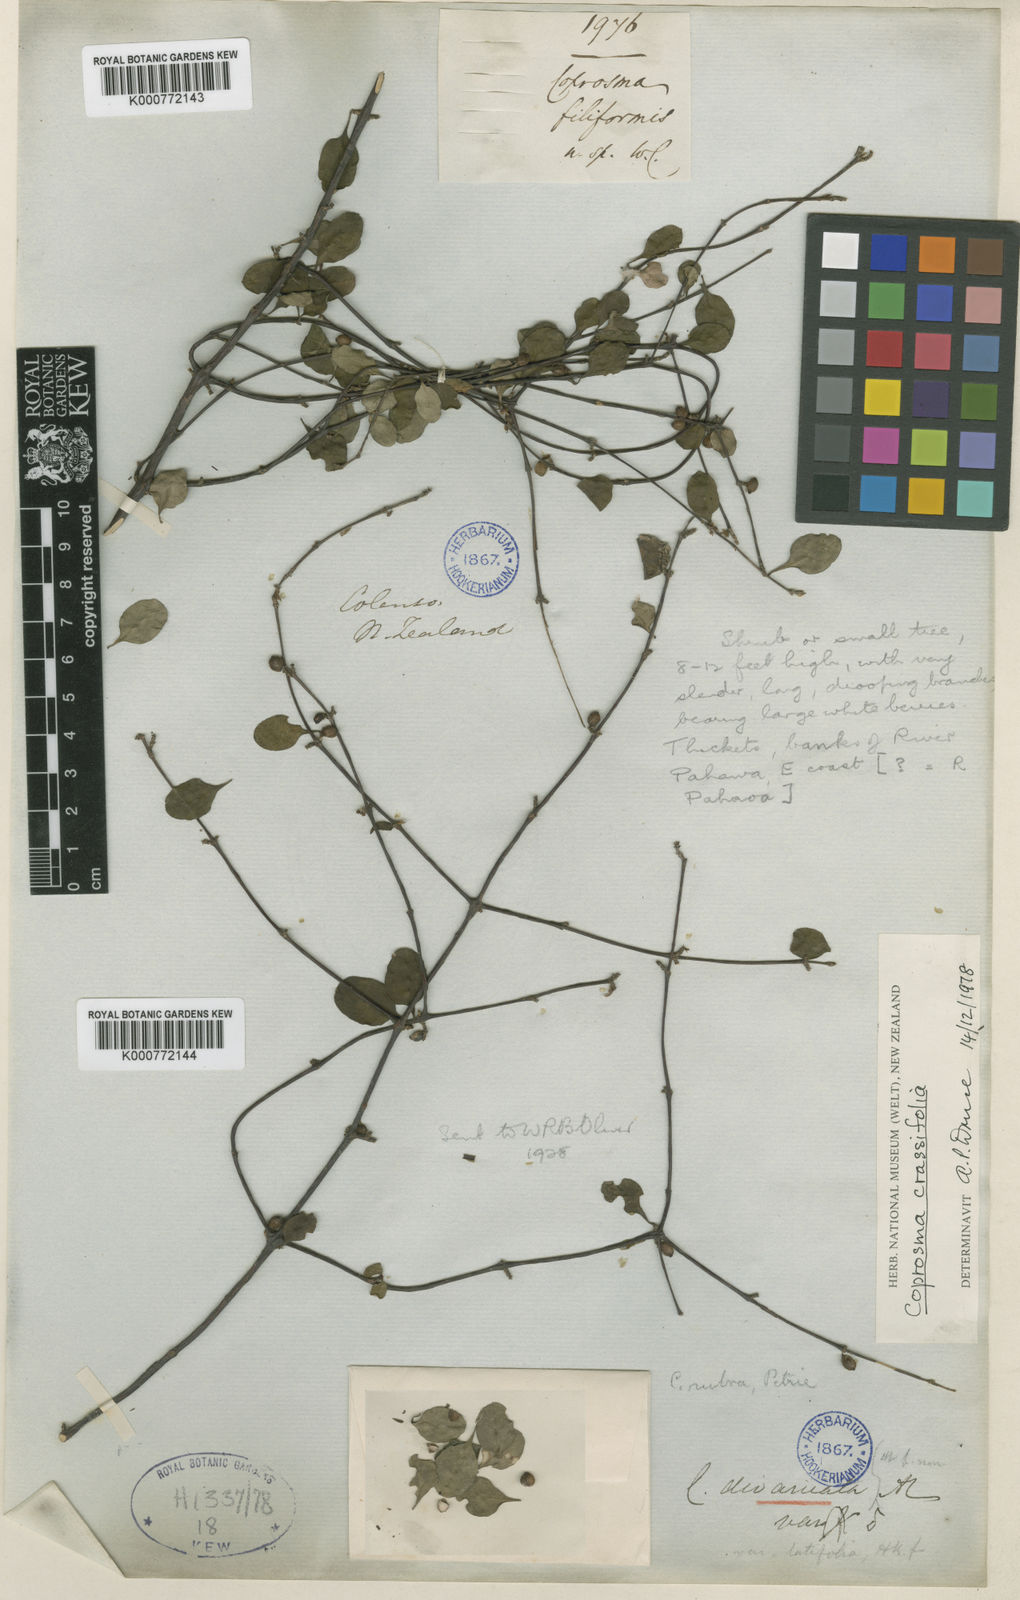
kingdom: Plantae
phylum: Tracheophyta
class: Magnoliopsida
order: Gentianales
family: Rubiaceae
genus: Coprosma
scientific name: Coprosma rubra
